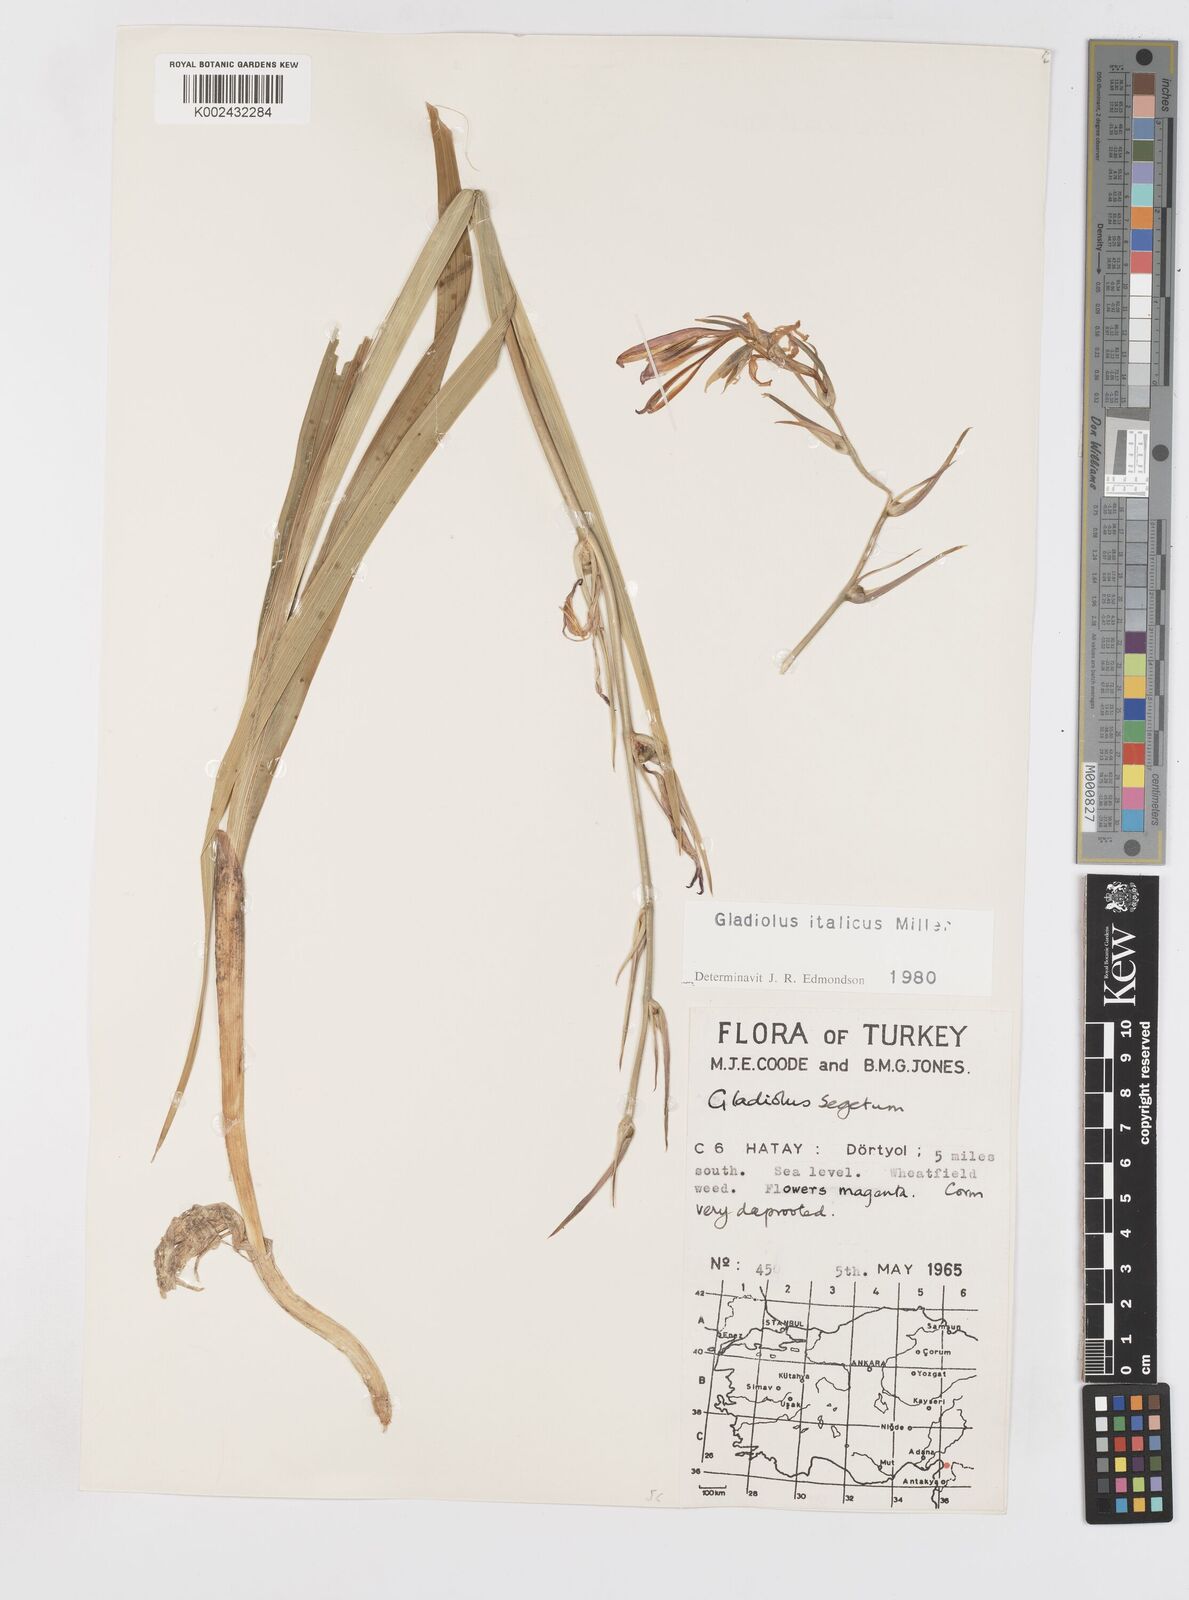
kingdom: Plantae
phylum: Tracheophyta
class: Liliopsida
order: Asparagales
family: Iridaceae
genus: Gladiolus
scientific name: Gladiolus italicus
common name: Field gladiolus
